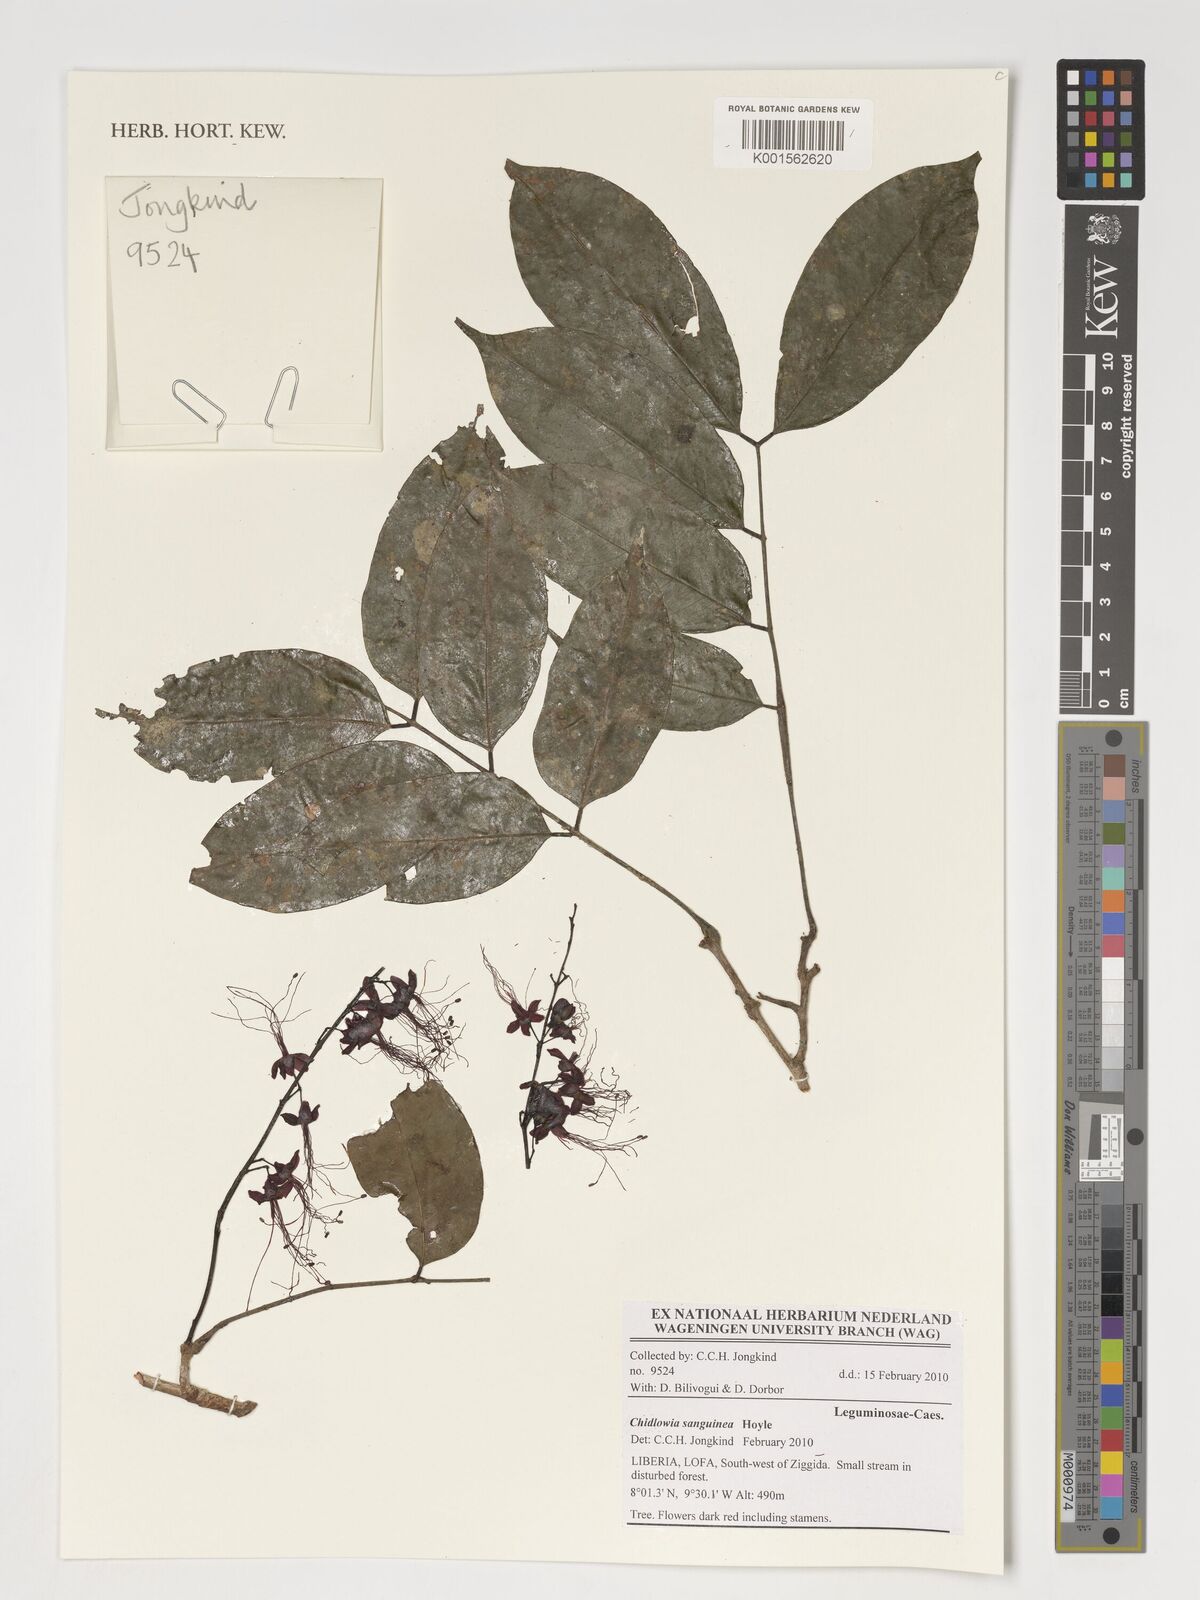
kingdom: Plantae
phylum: Tracheophyta
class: Magnoliopsida
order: Fabales
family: Fabaceae
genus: Chidlowia
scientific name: Chidlowia sanguinea
